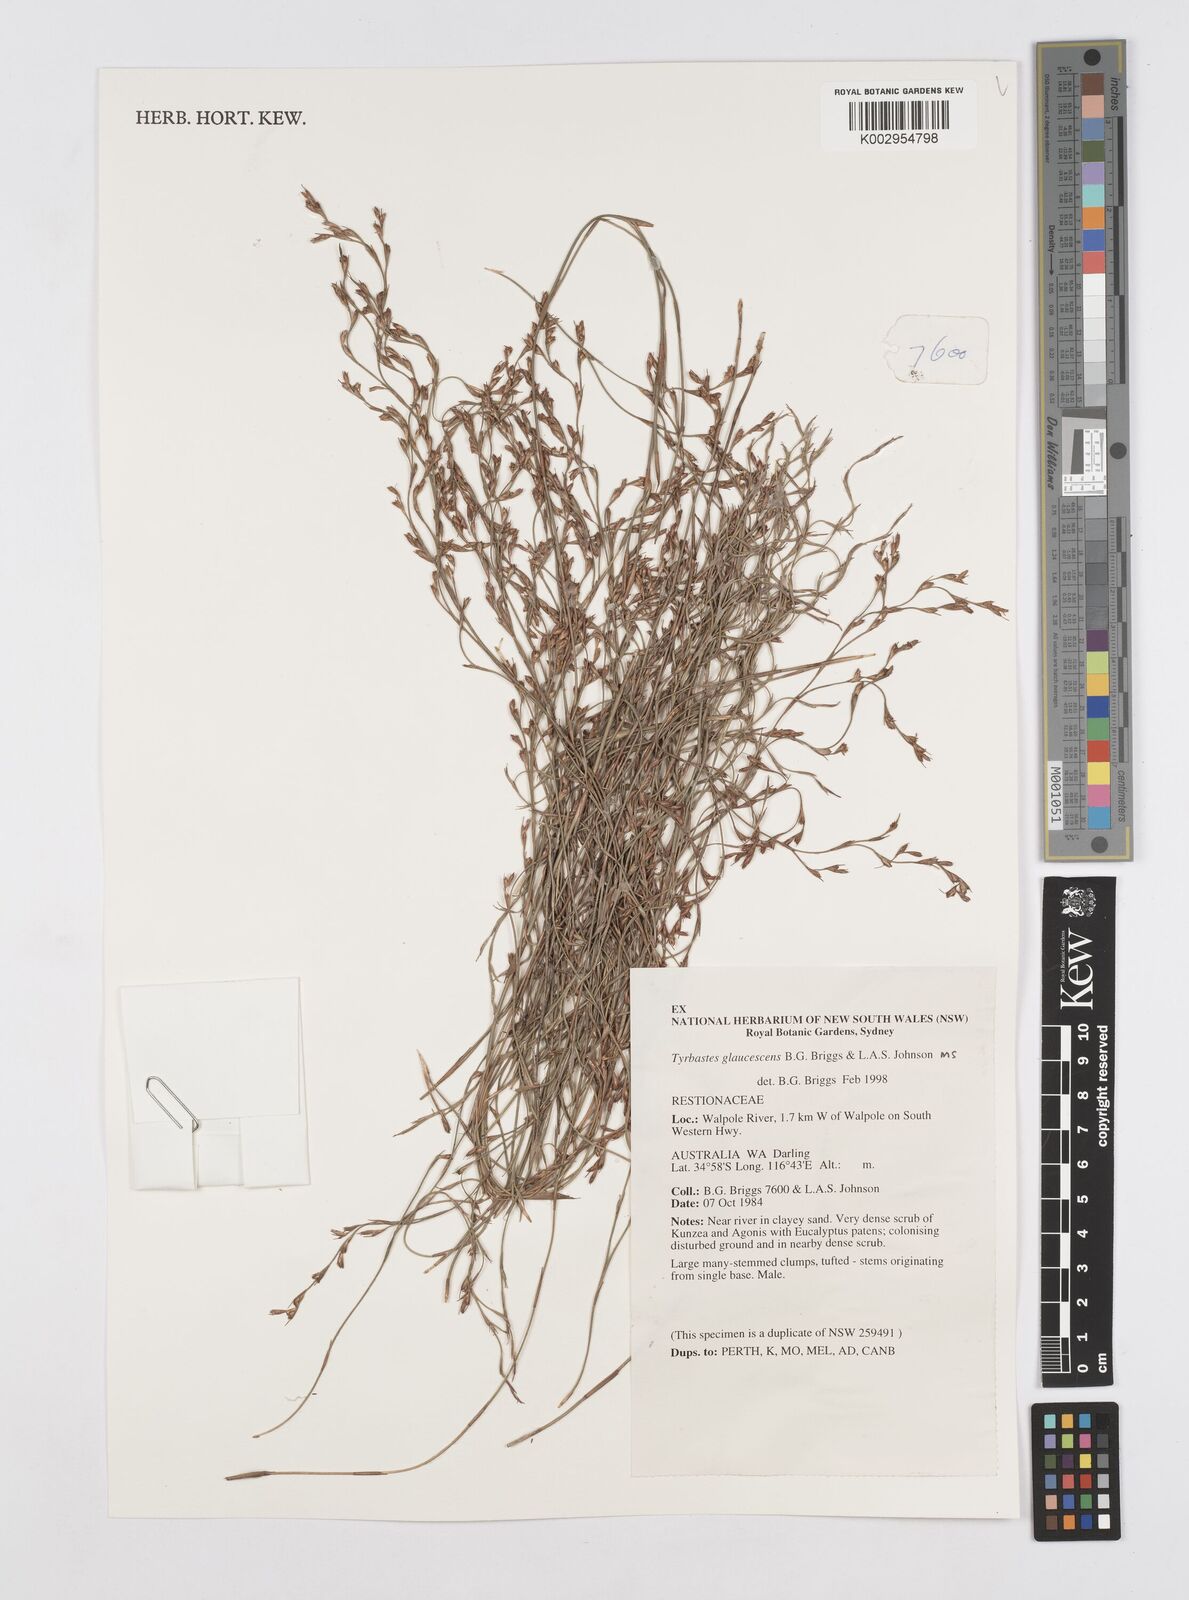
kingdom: Plantae
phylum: Tracheophyta
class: Liliopsida
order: Poales
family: Restionaceae
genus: Tyrbastes
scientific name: Tyrbastes glaucescens
